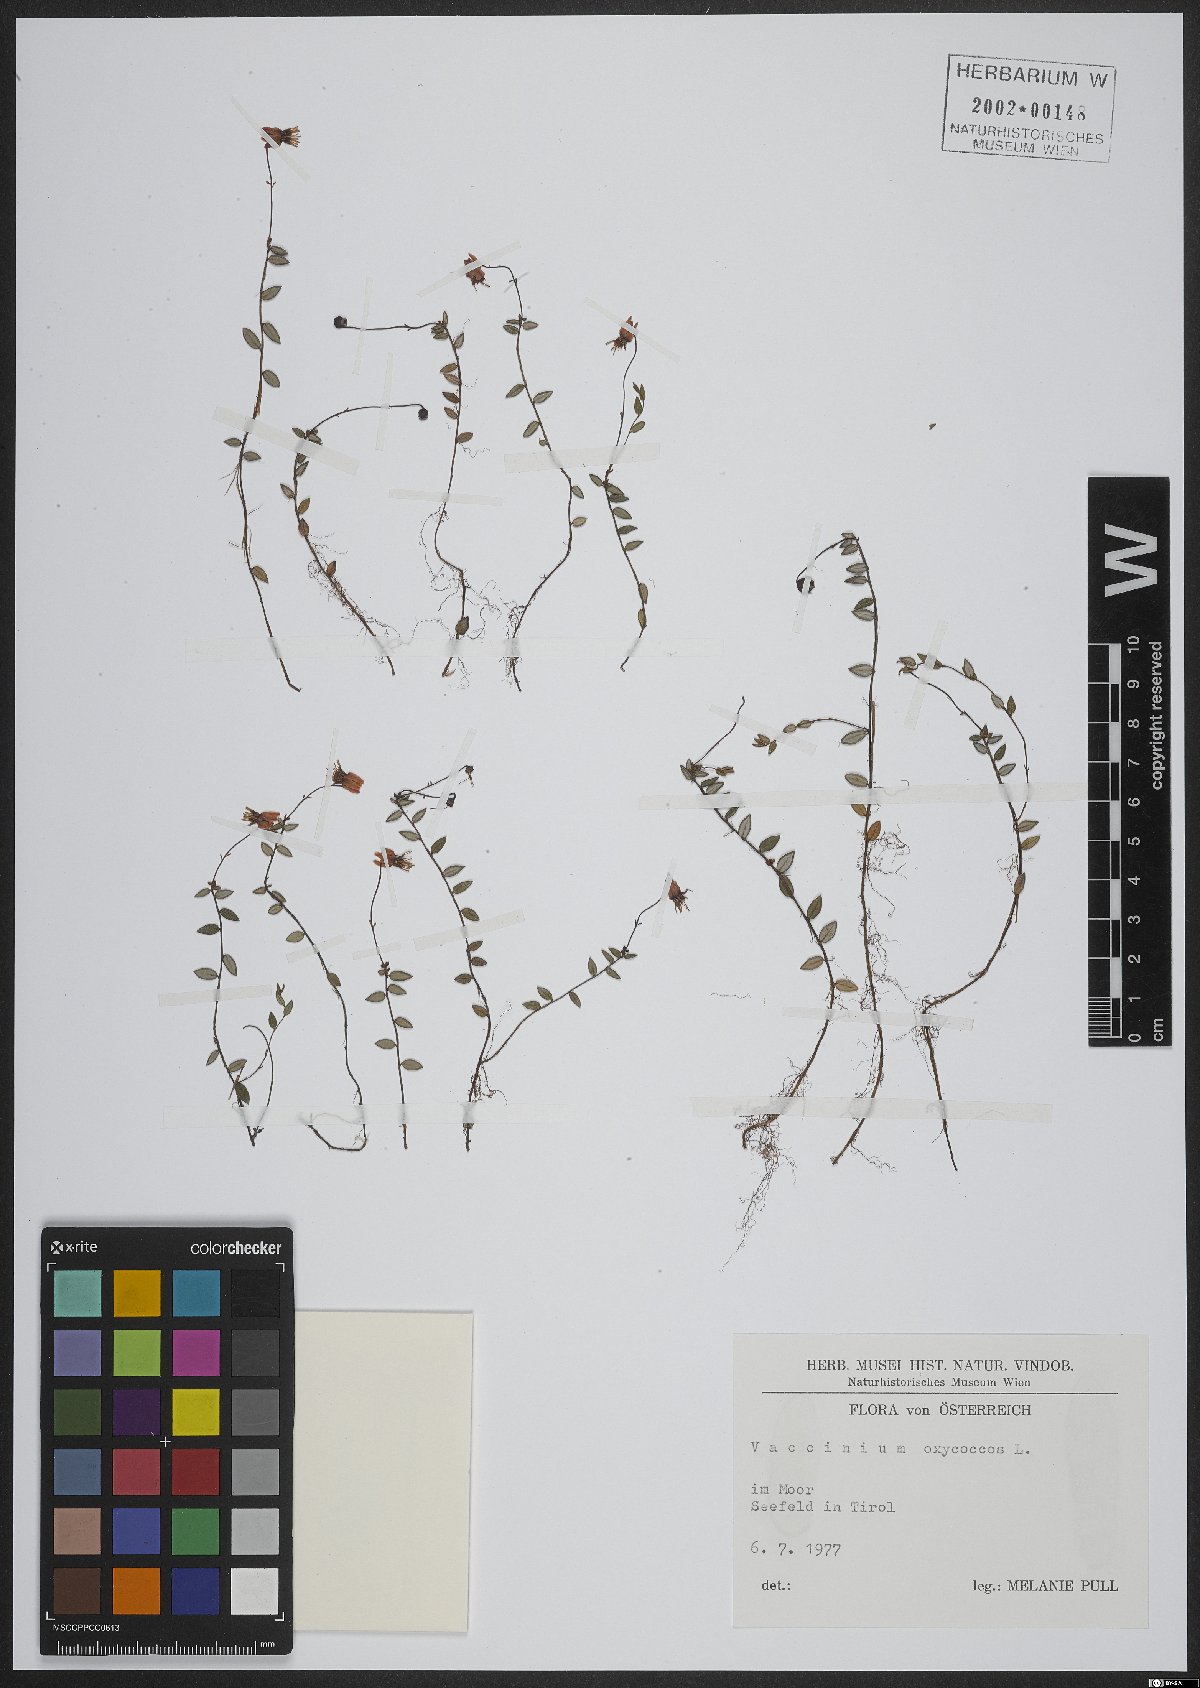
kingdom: Plantae
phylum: Tracheophyta
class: Magnoliopsida
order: Ericales
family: Ericaceae
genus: Vaccinium
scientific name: Vaccinium oxycoccos
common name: Cranberry
